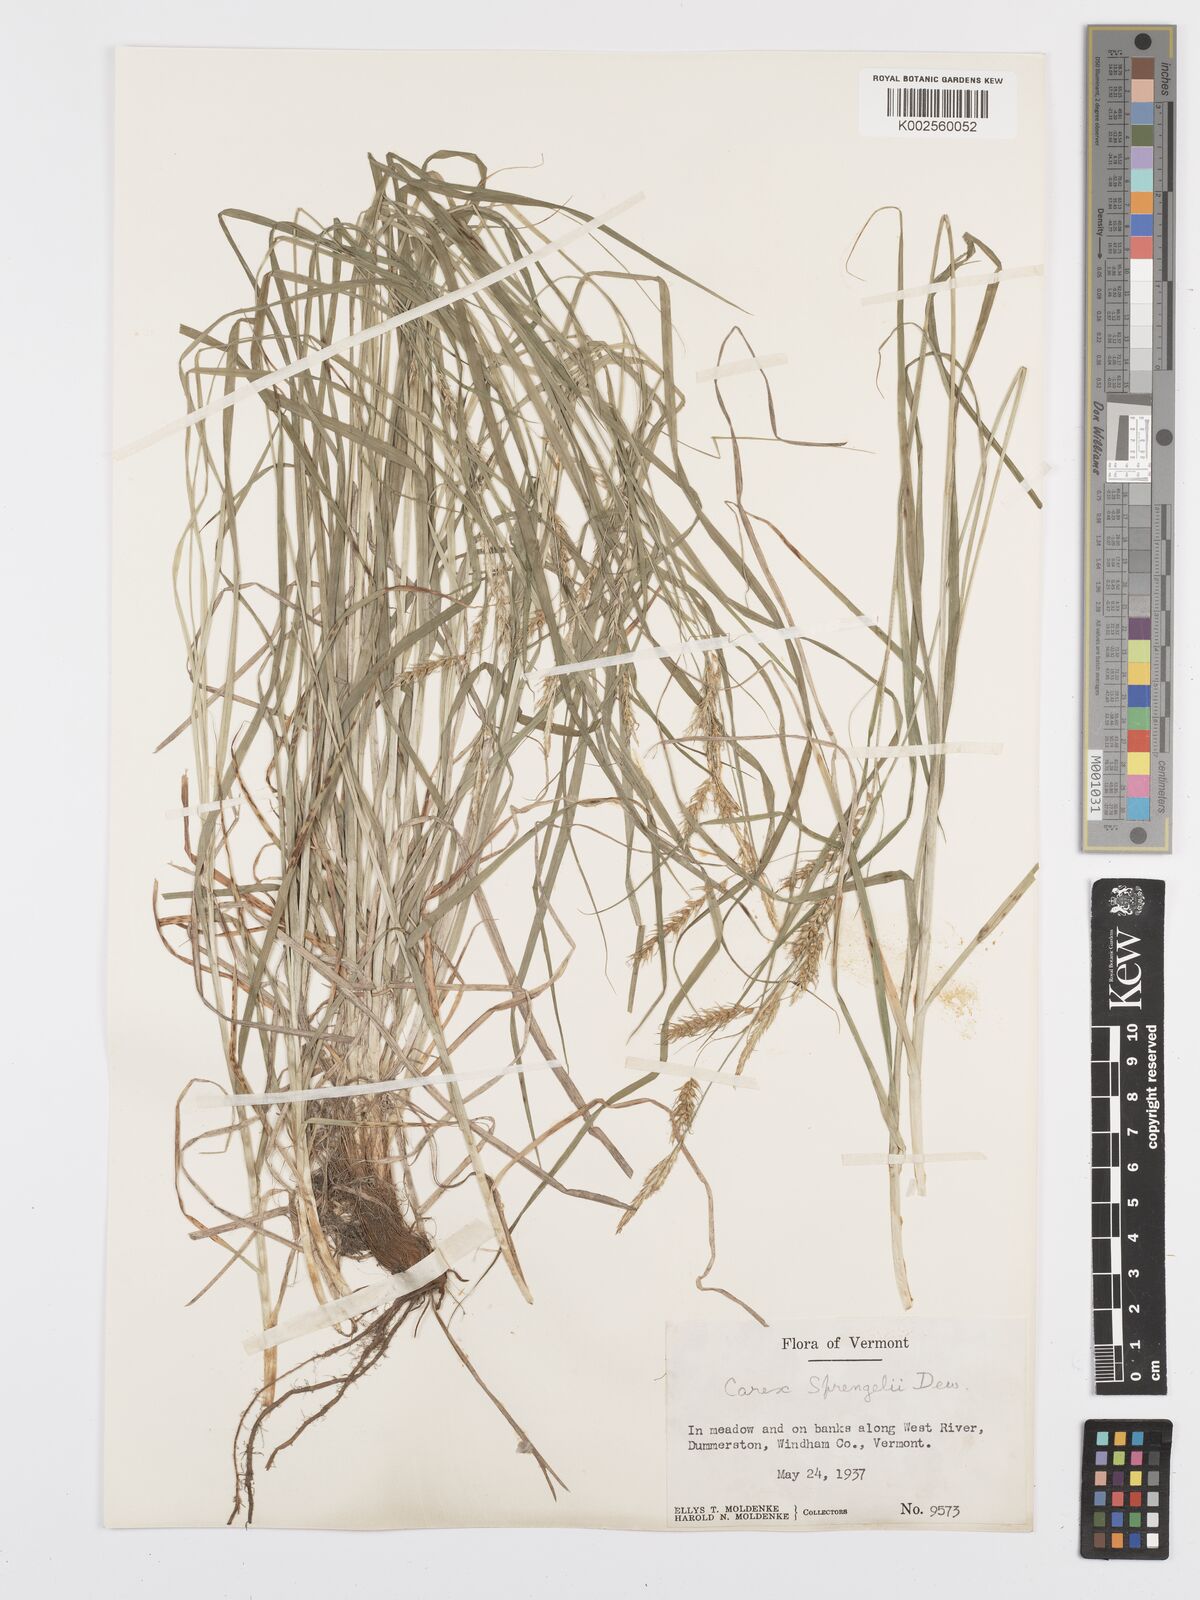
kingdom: Plantae
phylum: Tracheophyta
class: Liliopsida
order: Poales
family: Cyperaceae
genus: Carex
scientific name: Carex sprengelii
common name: Long-beaked sedge
